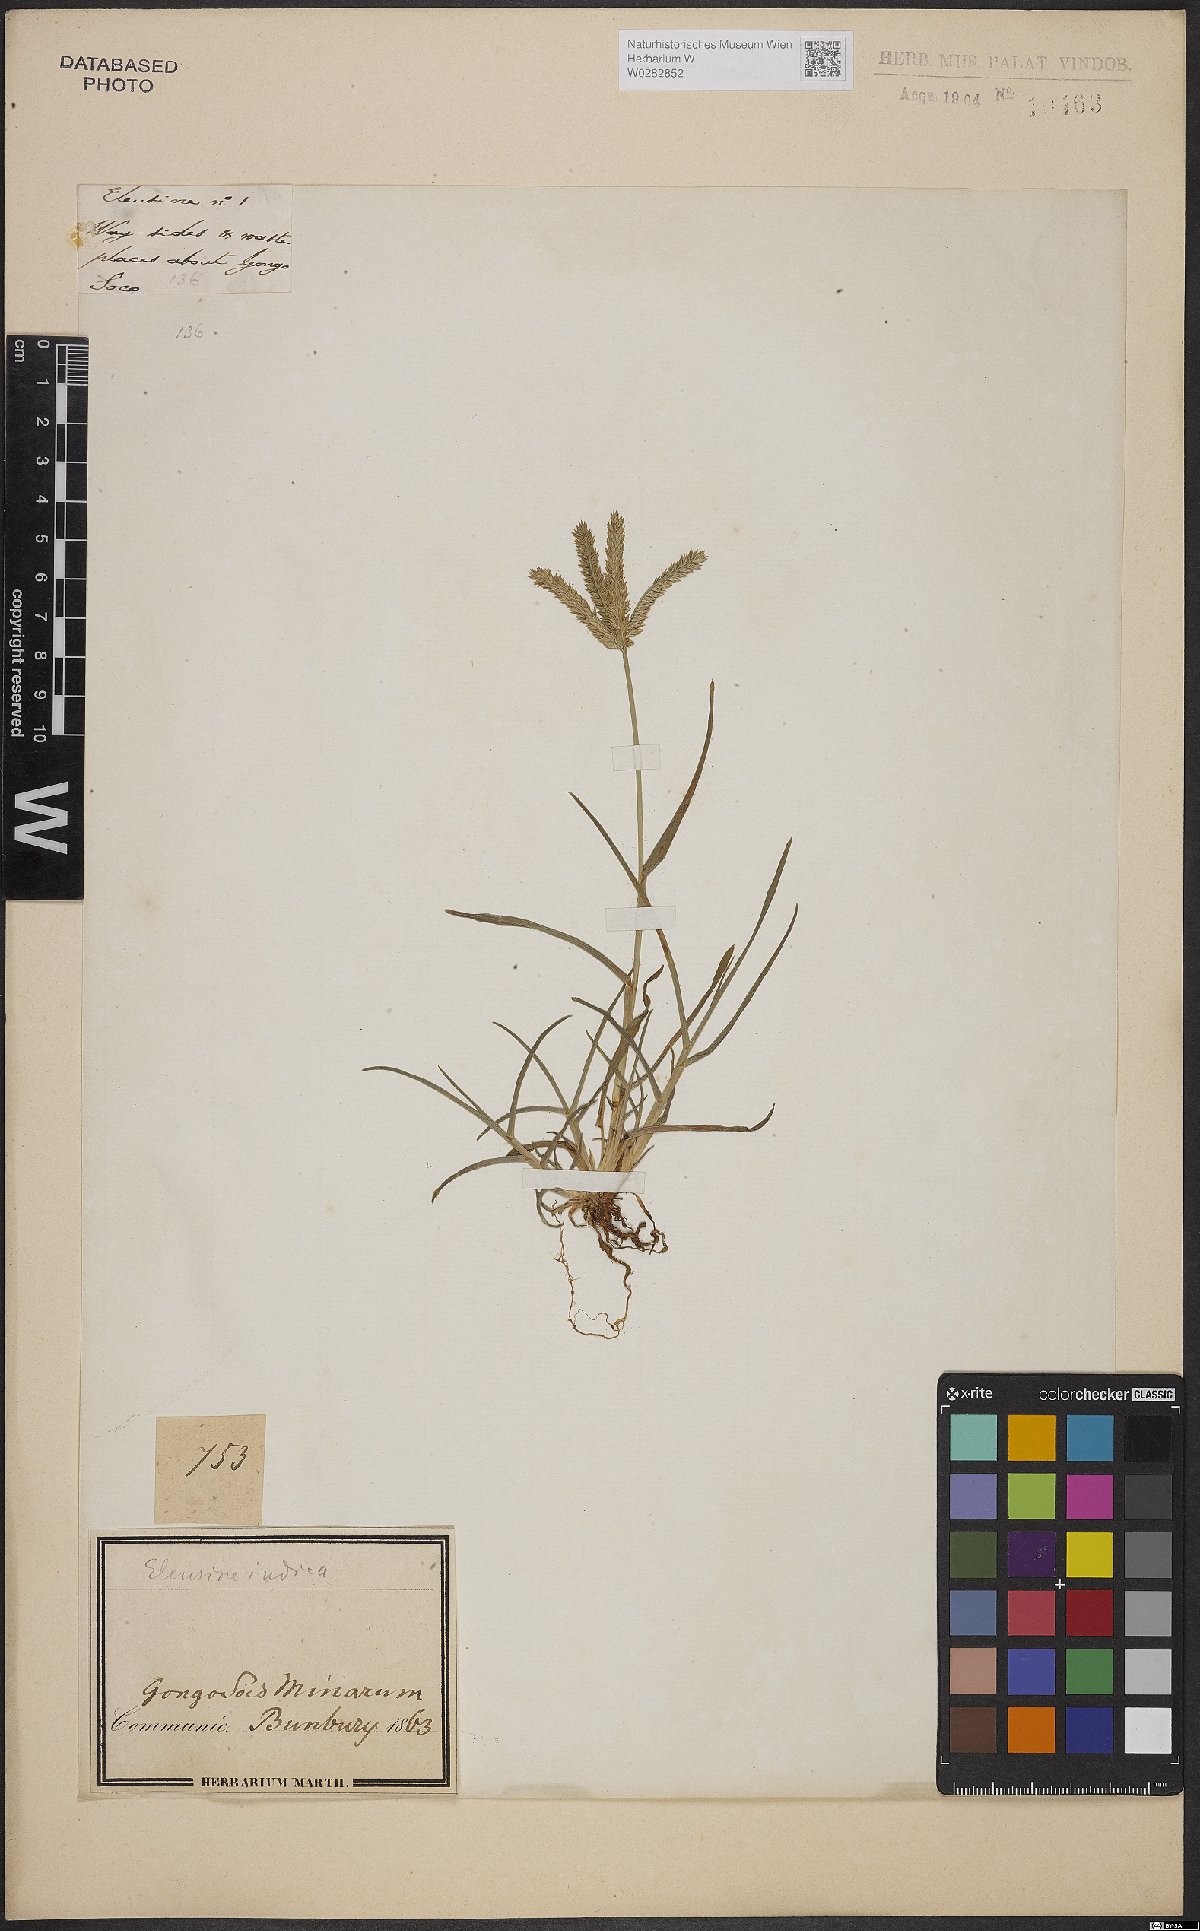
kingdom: Plantae
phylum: Tracheophyta
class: Liliopsida
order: Poales
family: Poaceae
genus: Eleusine
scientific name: Eleusine indica
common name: Yard-grass
